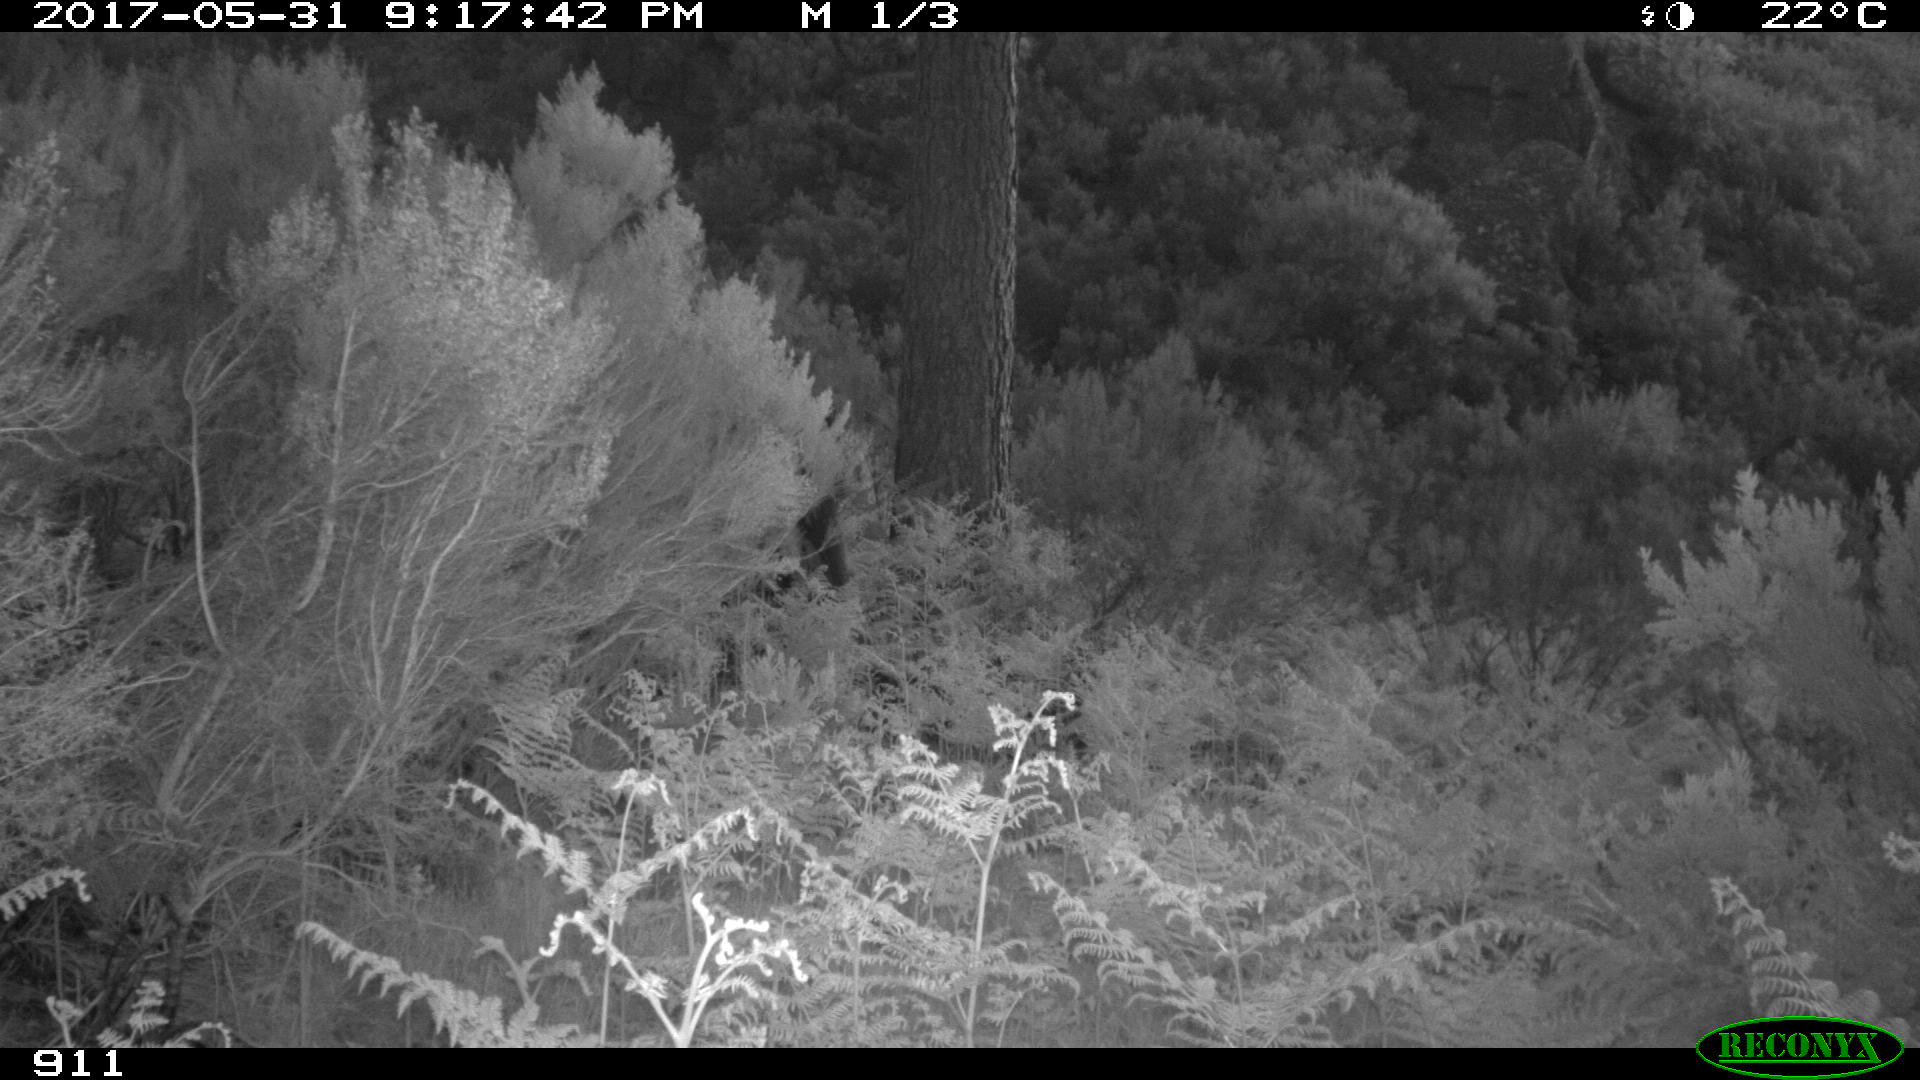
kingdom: Animalia
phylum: Chordata
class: Mammalia
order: Perissodactyla
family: Equidae
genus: Equus
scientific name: Equus caballus
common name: Horse
